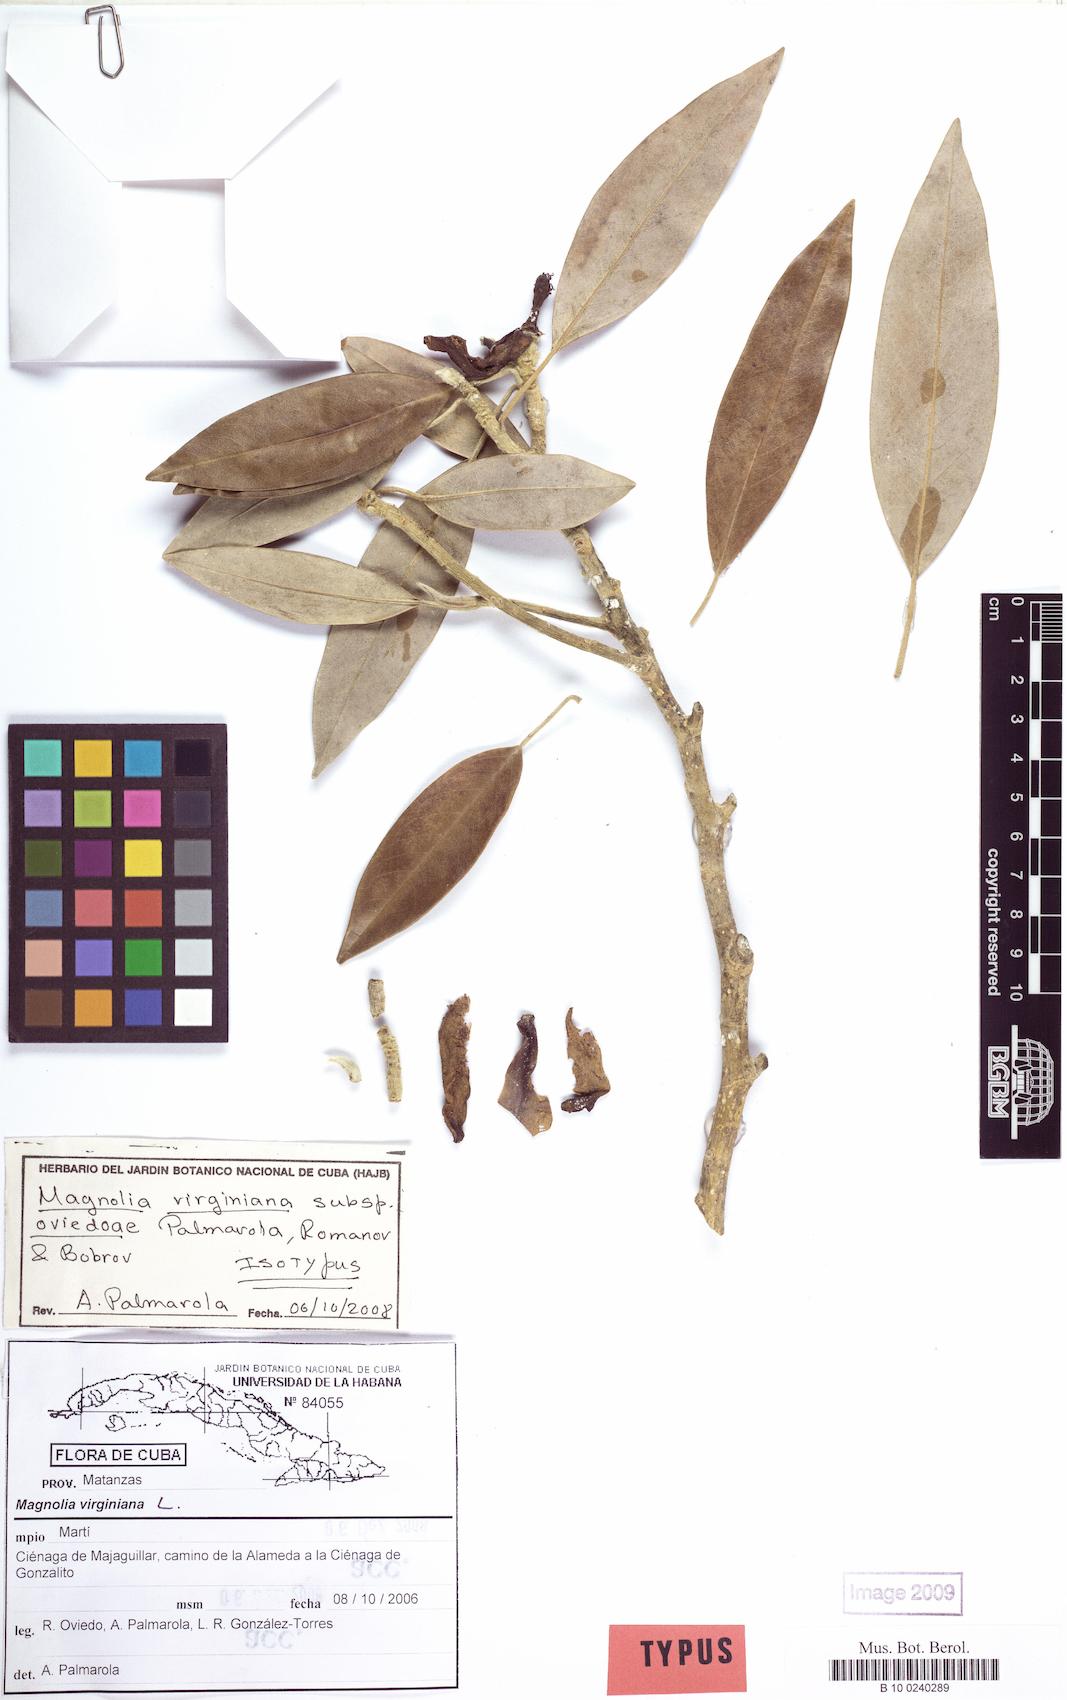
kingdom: Plantae
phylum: Tracheophyta
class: Magnoliopsida
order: Magnoliales
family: Magnoliaceae
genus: Magnolia
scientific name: Magnolia virginiana
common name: Swamp bay
